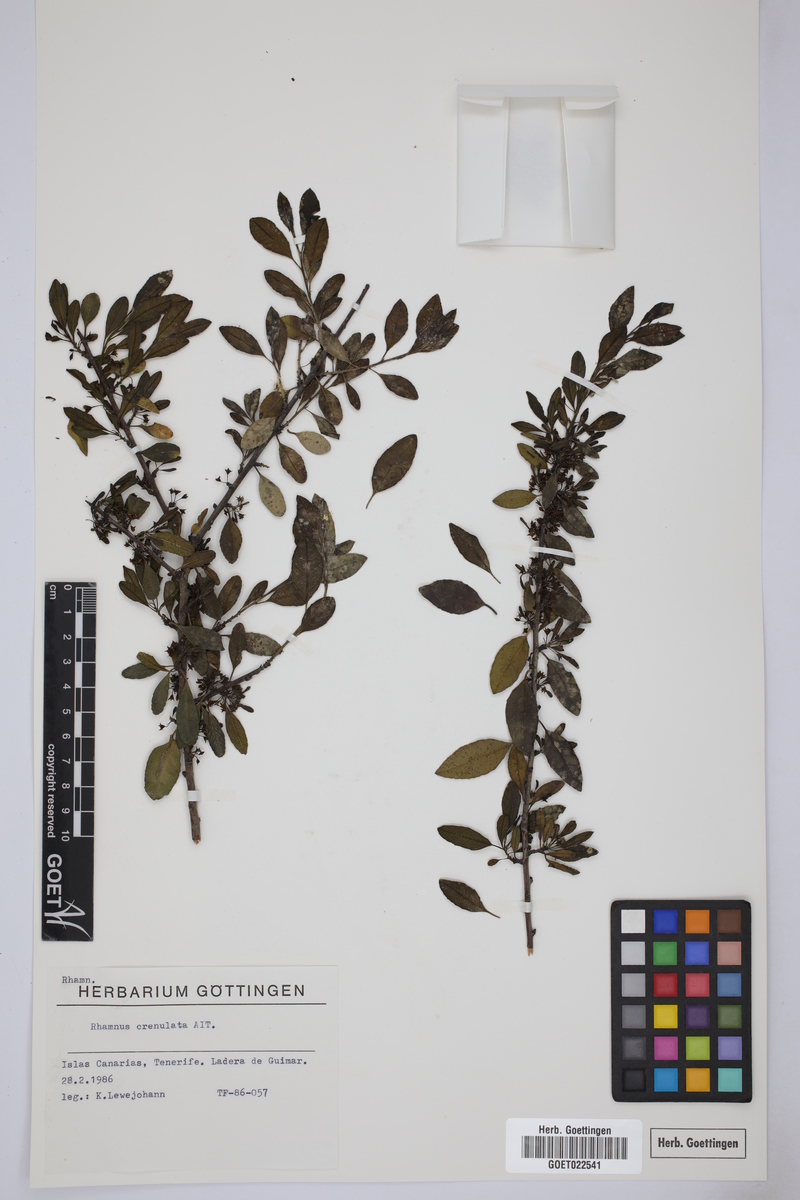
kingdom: Plantae
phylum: Tracheophyta
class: Magnoliopsida
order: Rosales
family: Rhamnaceae
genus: Rhamnus
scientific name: Rhamnus crenulata
